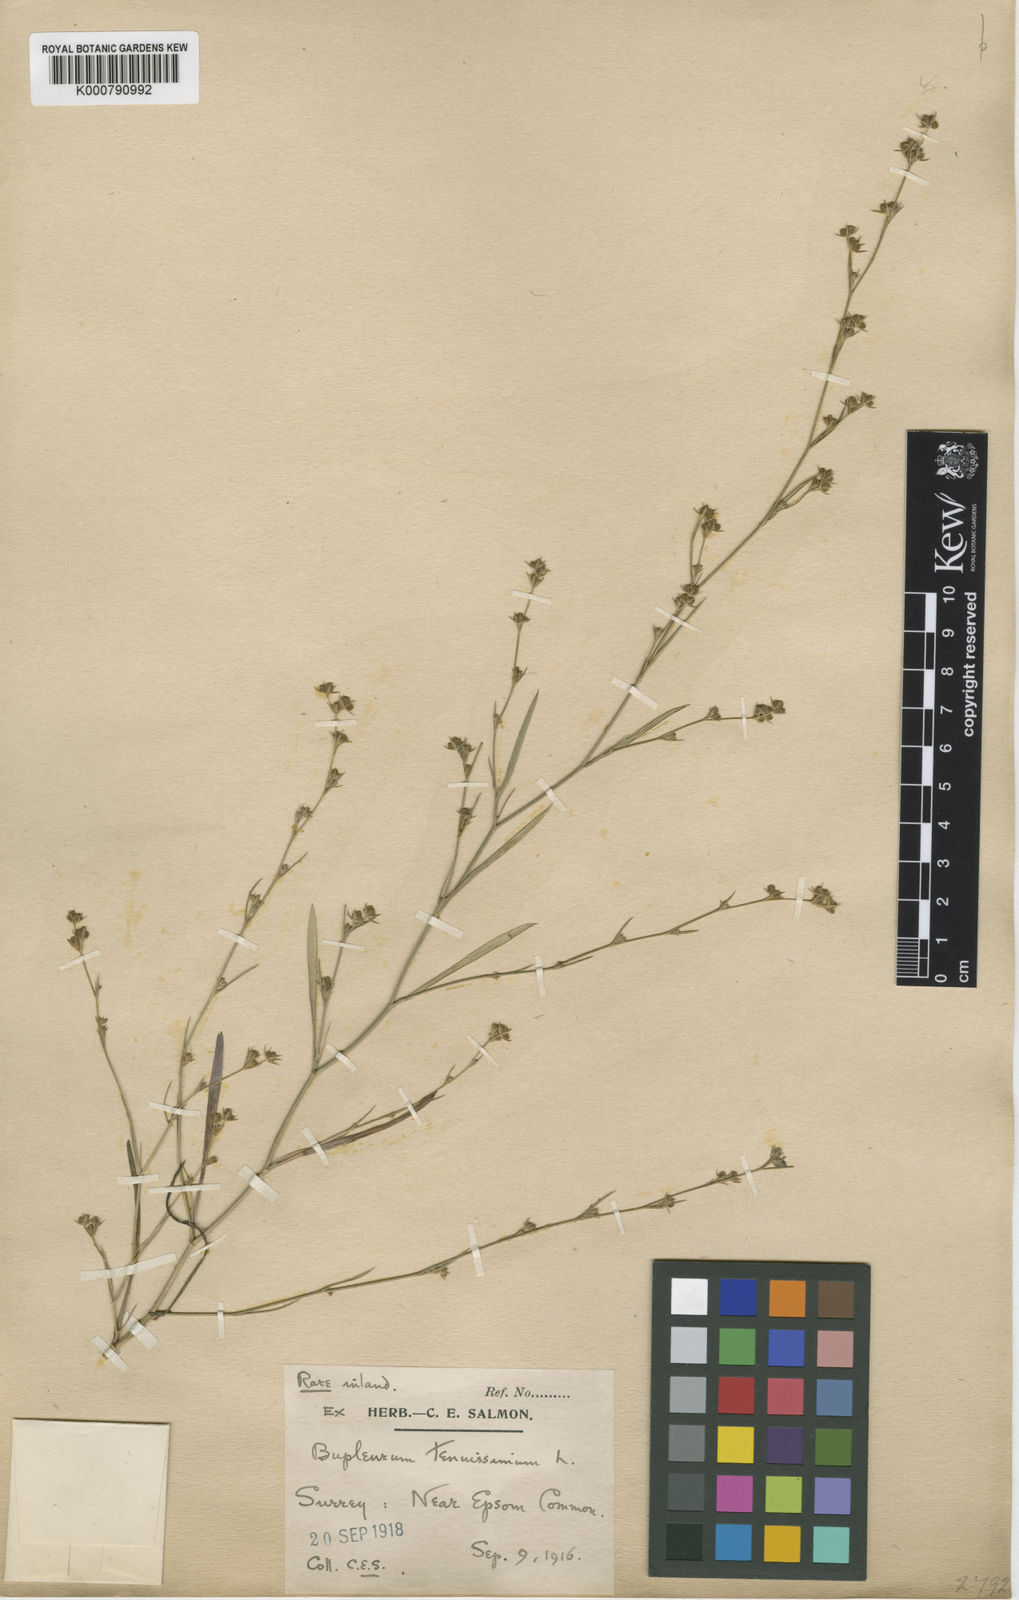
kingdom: Plantae
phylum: Tracheophyta
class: Magnoliopsida
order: Apiales
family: Apiaceae
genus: Bupleurum
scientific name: Bupleurum tenuissimum
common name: Slender hare's-ear
